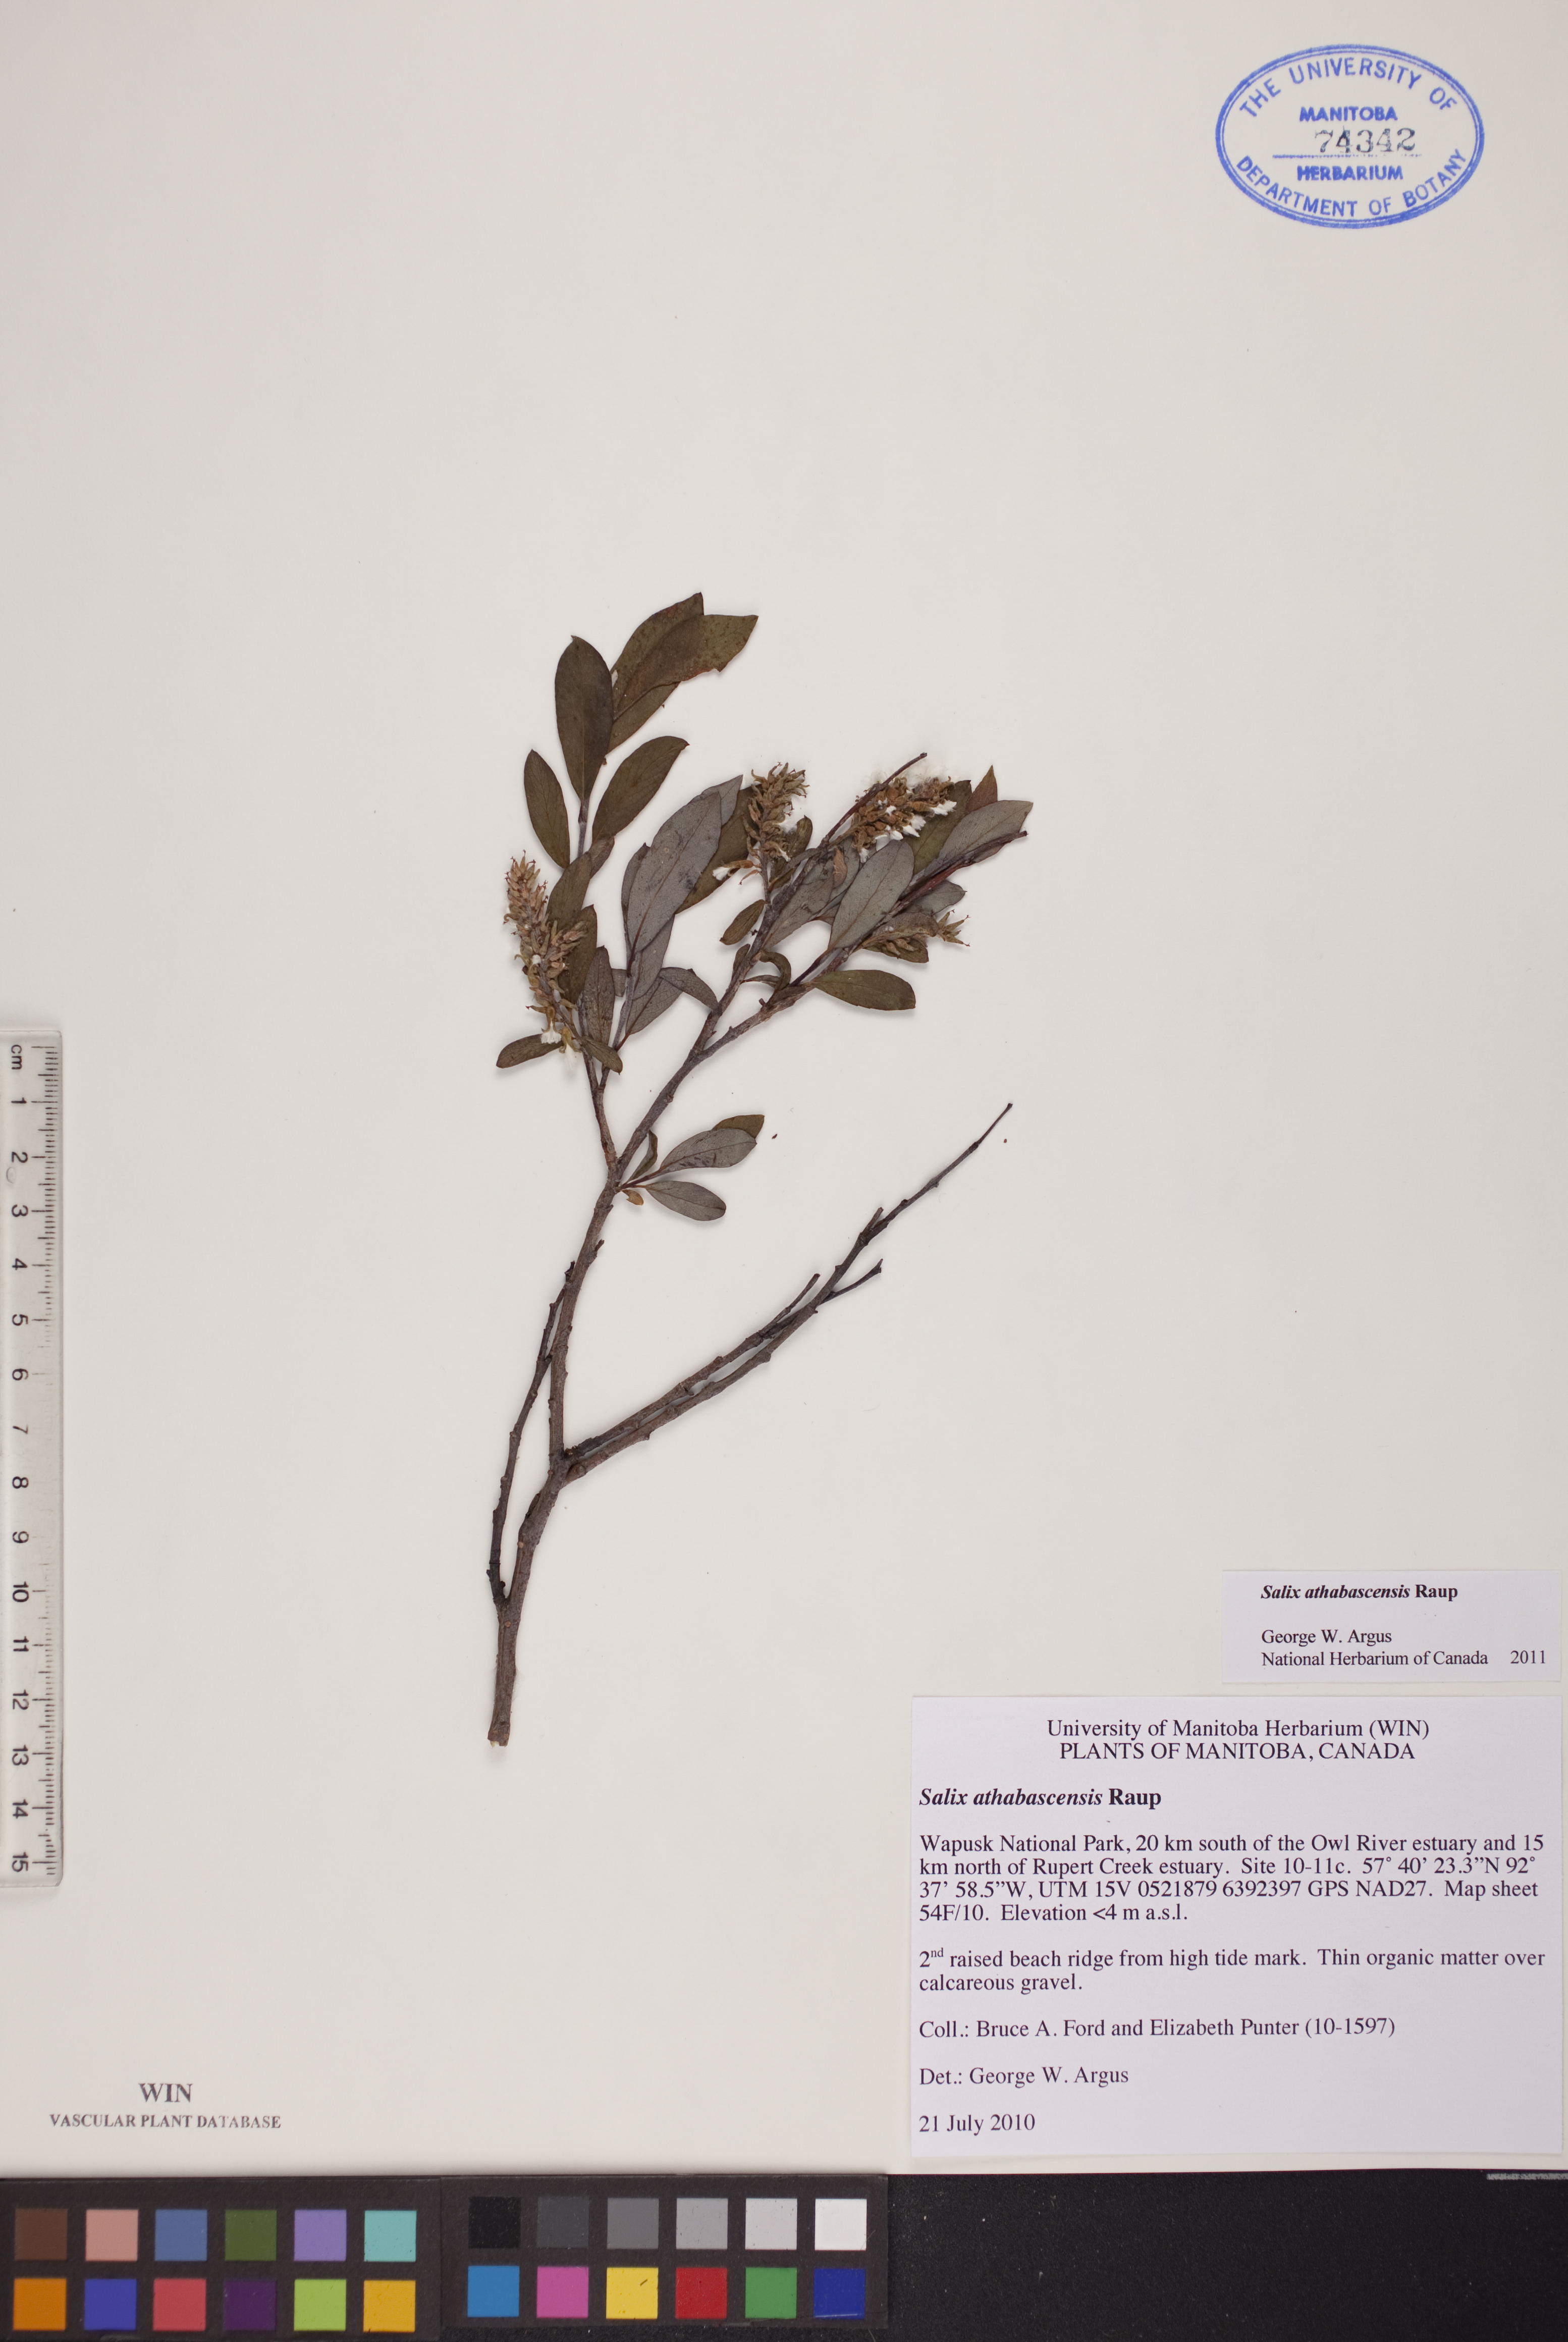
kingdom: Plantae
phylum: Tracheophyta
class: Magnoliopsida
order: Malpighiales
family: Salicaceae
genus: Salix
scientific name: Salix athabascensis
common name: Athabasca willow
